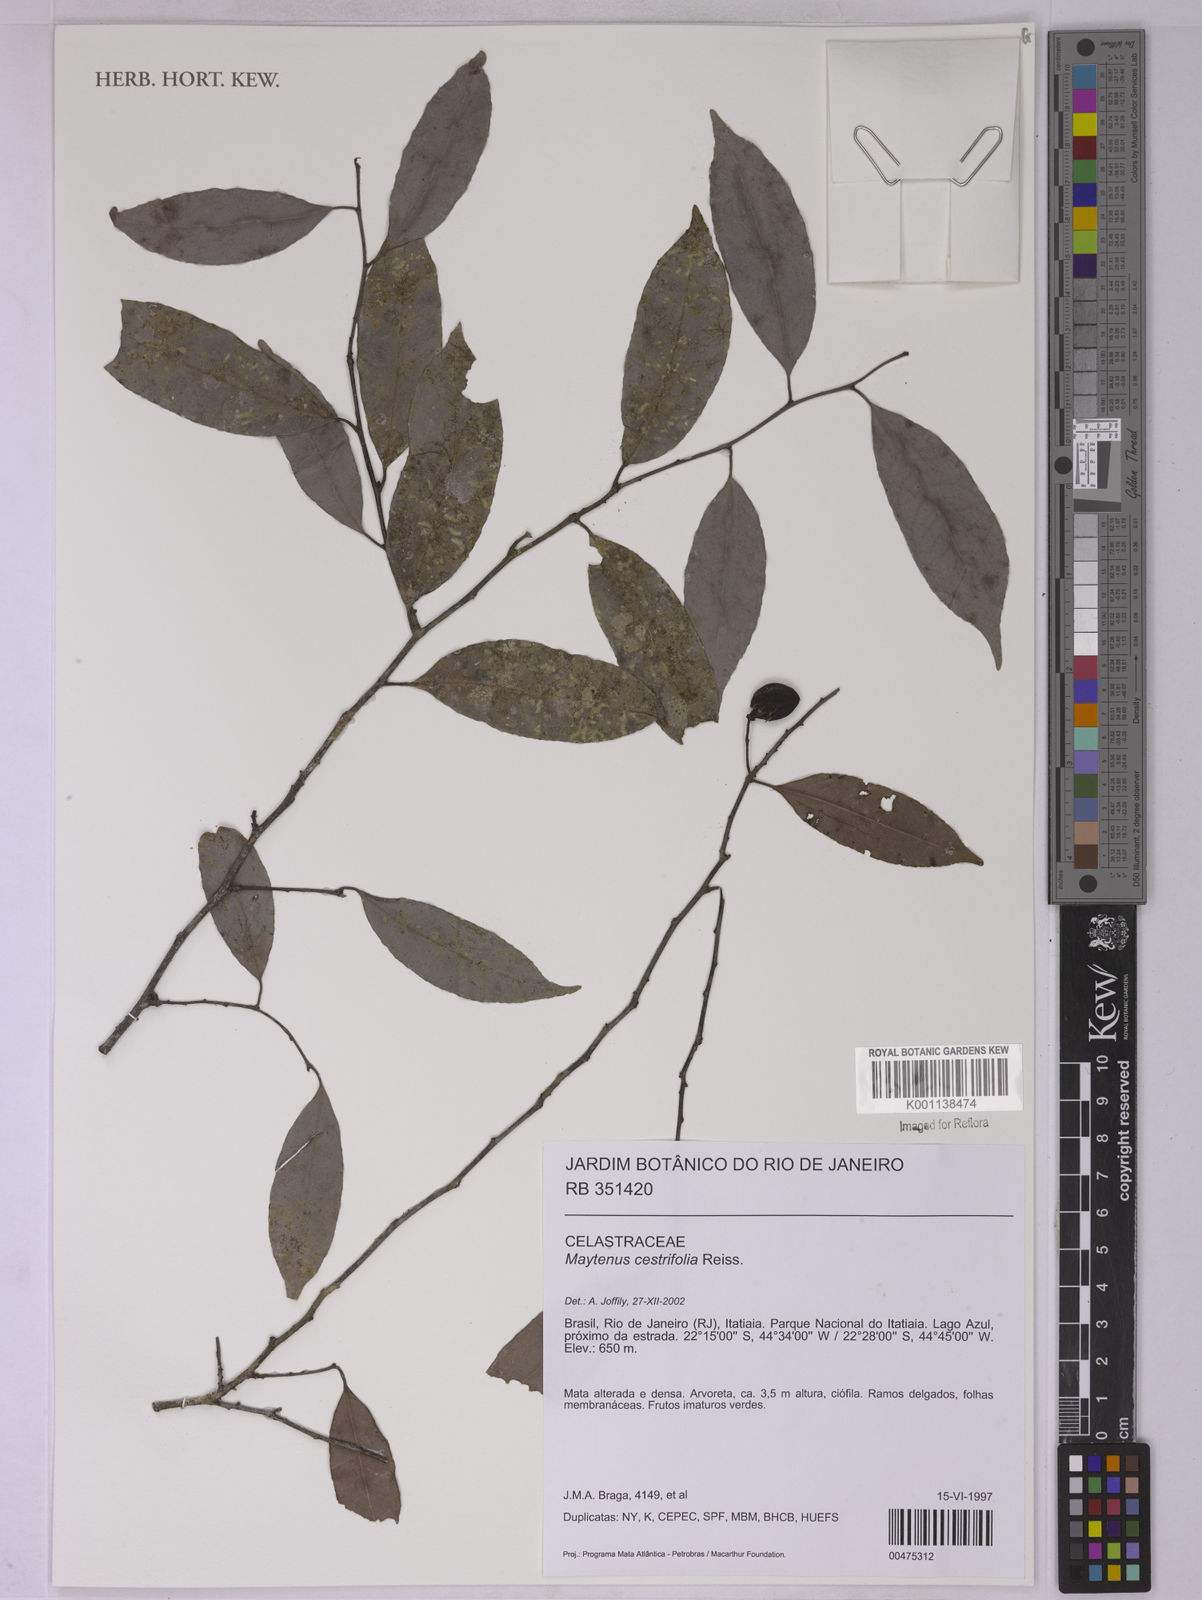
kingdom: Plantae
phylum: Tracheophyta
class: Magnoliopsida
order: Celastrales
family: Celastraceae
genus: Monteverdia
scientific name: Monteverdia cestrifolia
